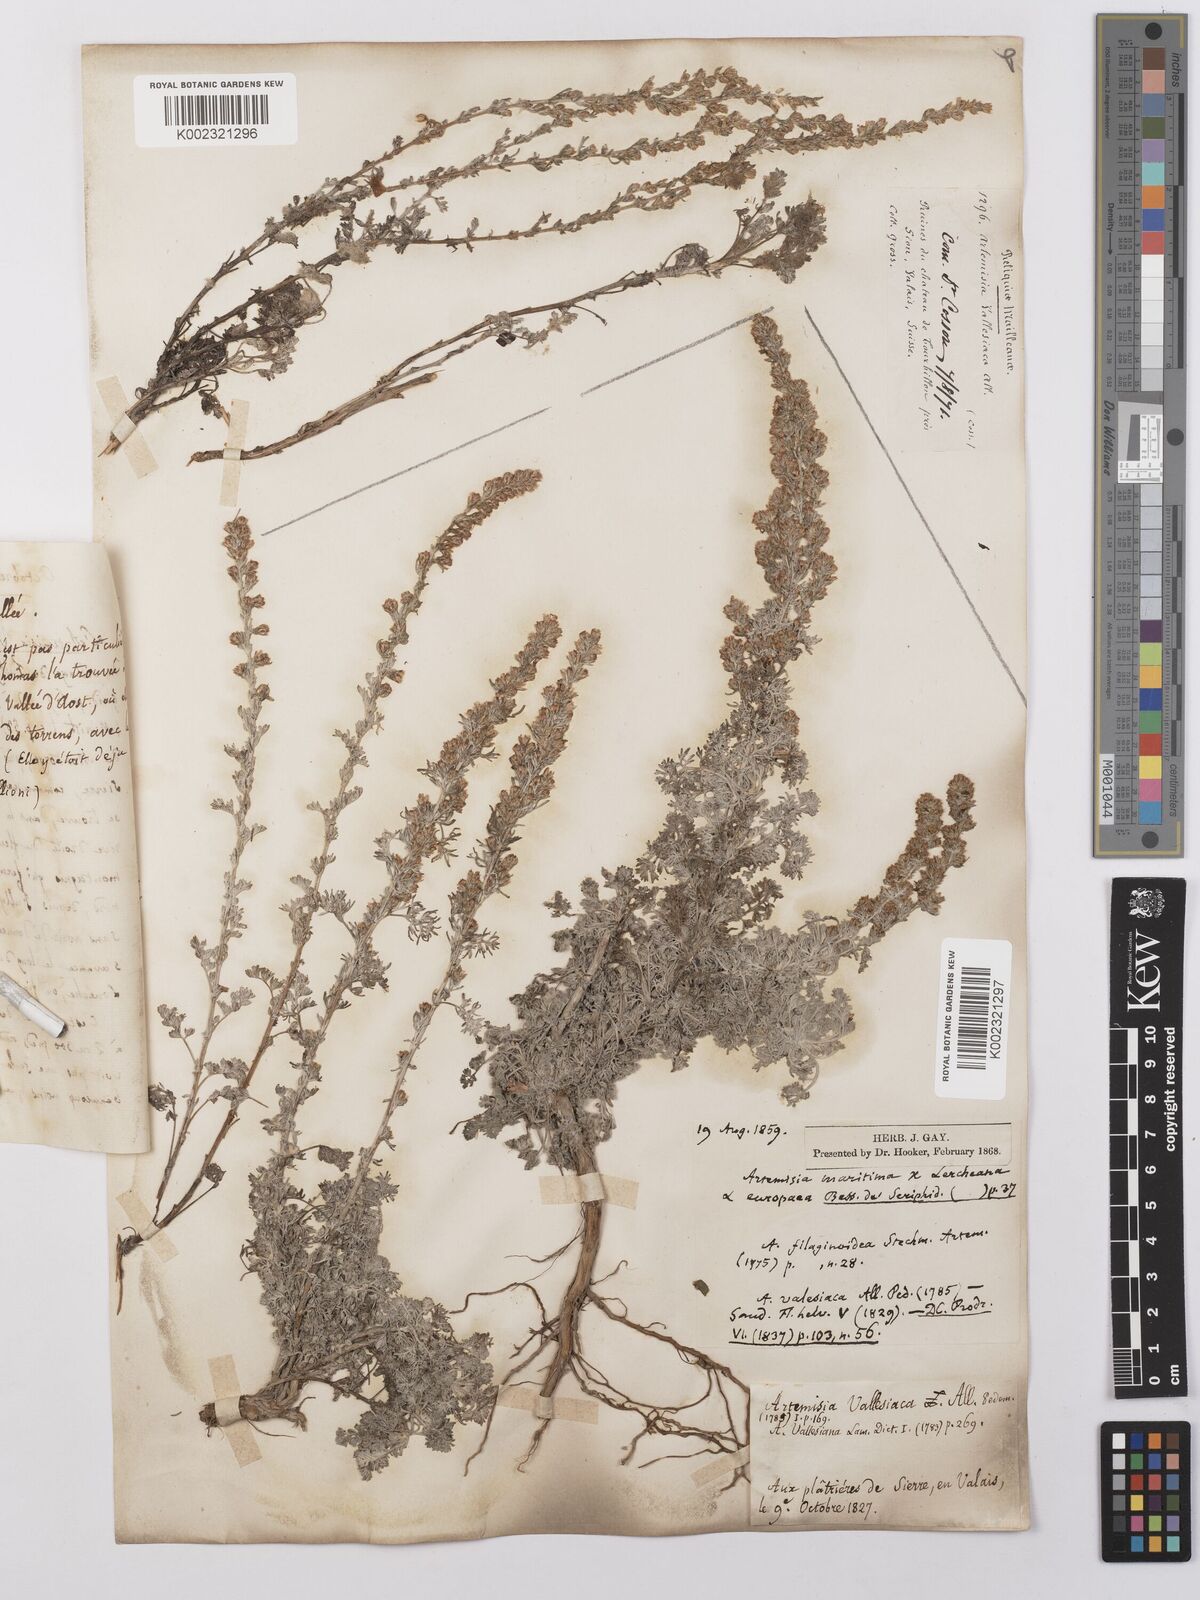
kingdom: Plantae
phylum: Tracheophyta
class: Magnoliopsida
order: Asterales
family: Asteraceae
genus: Artemisia
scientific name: Artemisia vallesiaca
